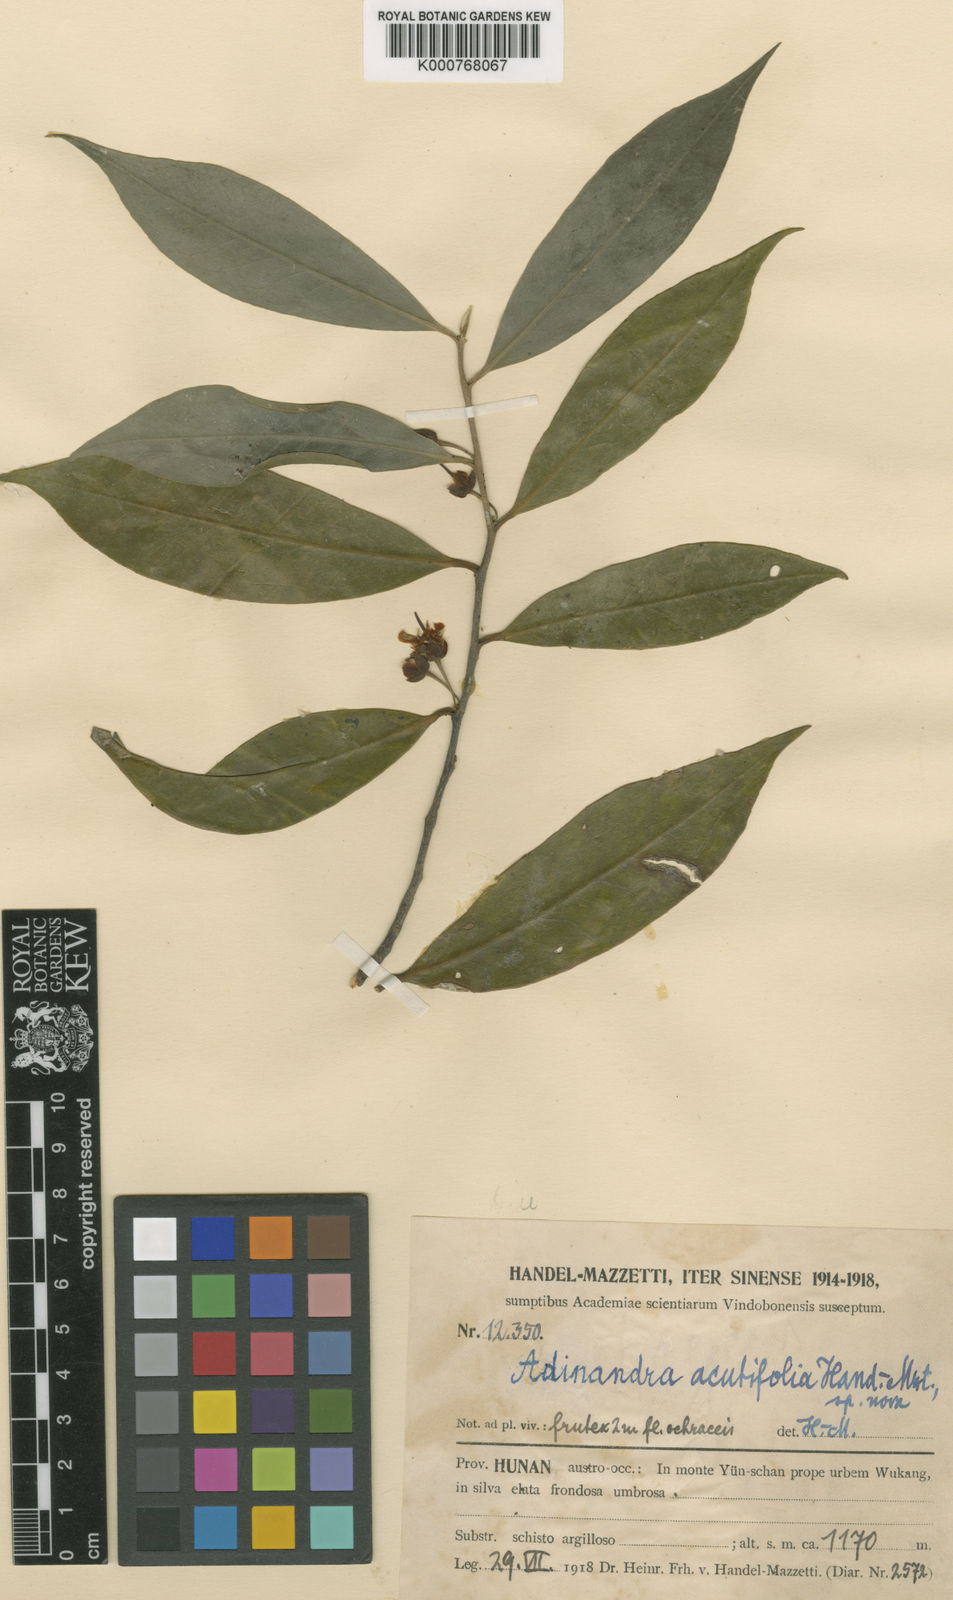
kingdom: Plantae
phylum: Tracheophyta
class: Magnoliopsida
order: Ericales
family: Pentaphylacaceae
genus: Adinandra
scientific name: Adinandra bockiana
